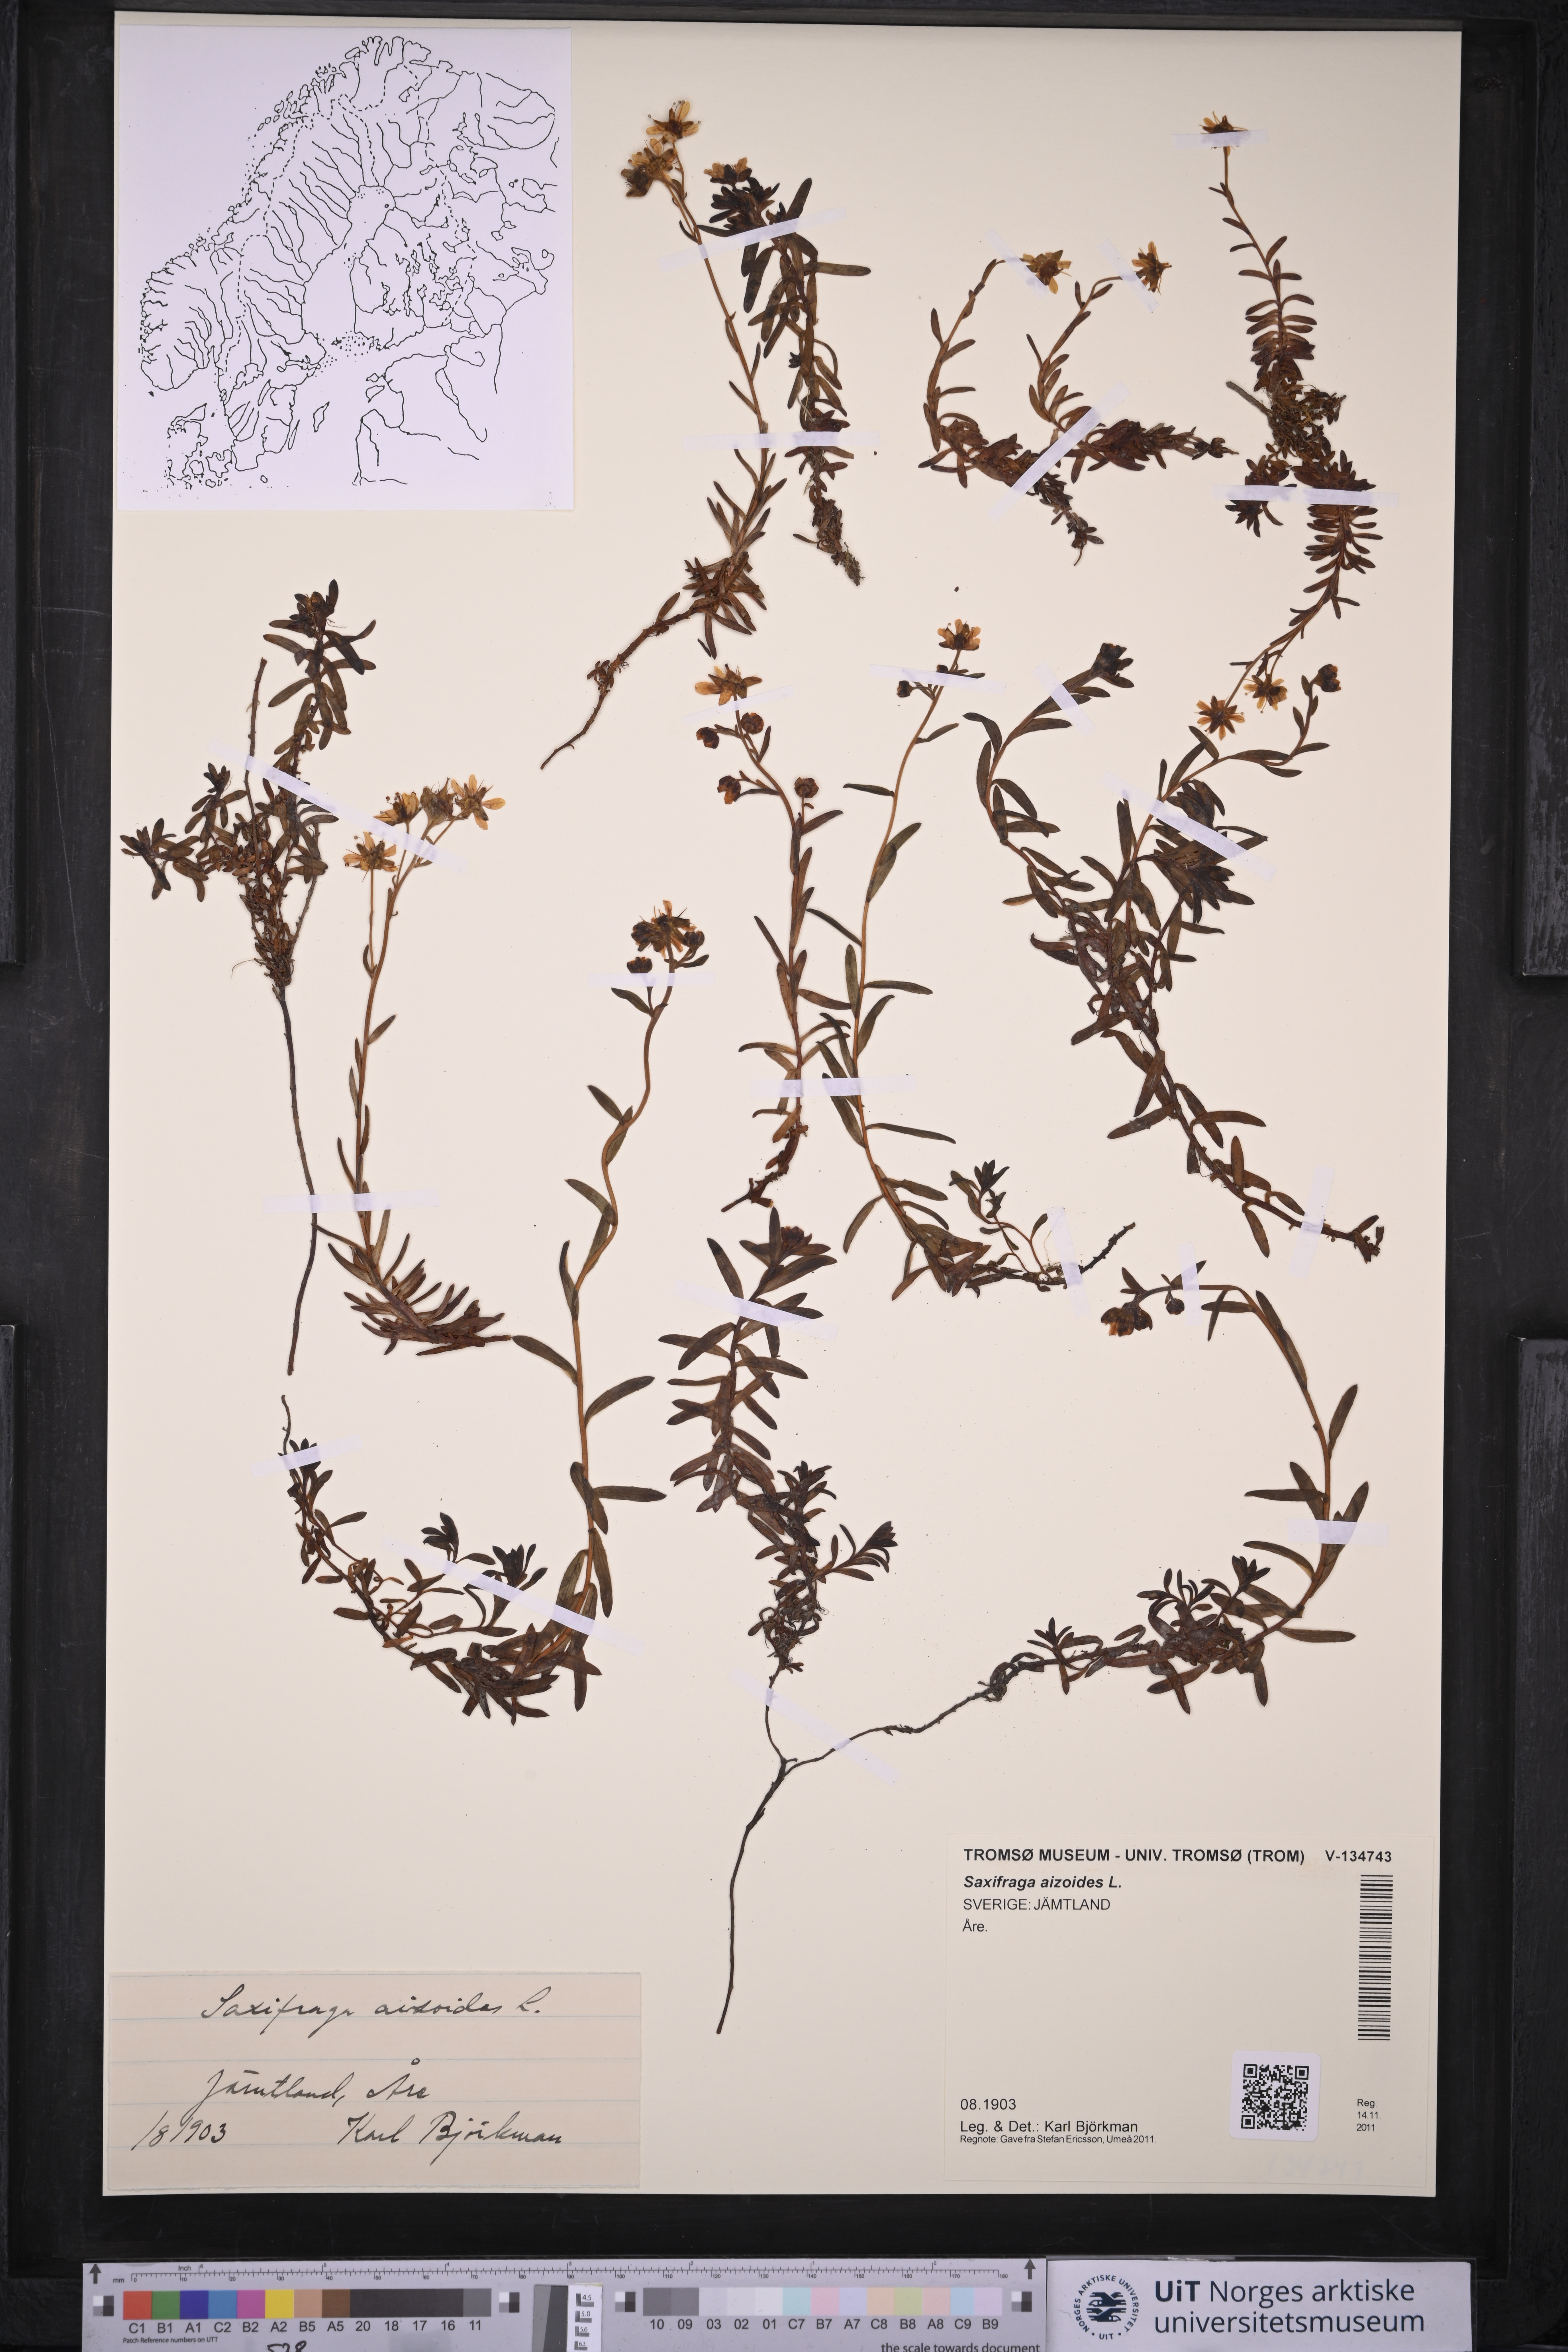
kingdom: Plantae
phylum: Tracheophyta
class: Magnoliopsida
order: Saxifragales
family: Saxifragaceae
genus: Saxifraga
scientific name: Saxifraga aizoides
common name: Yellow mountain saxifrage
